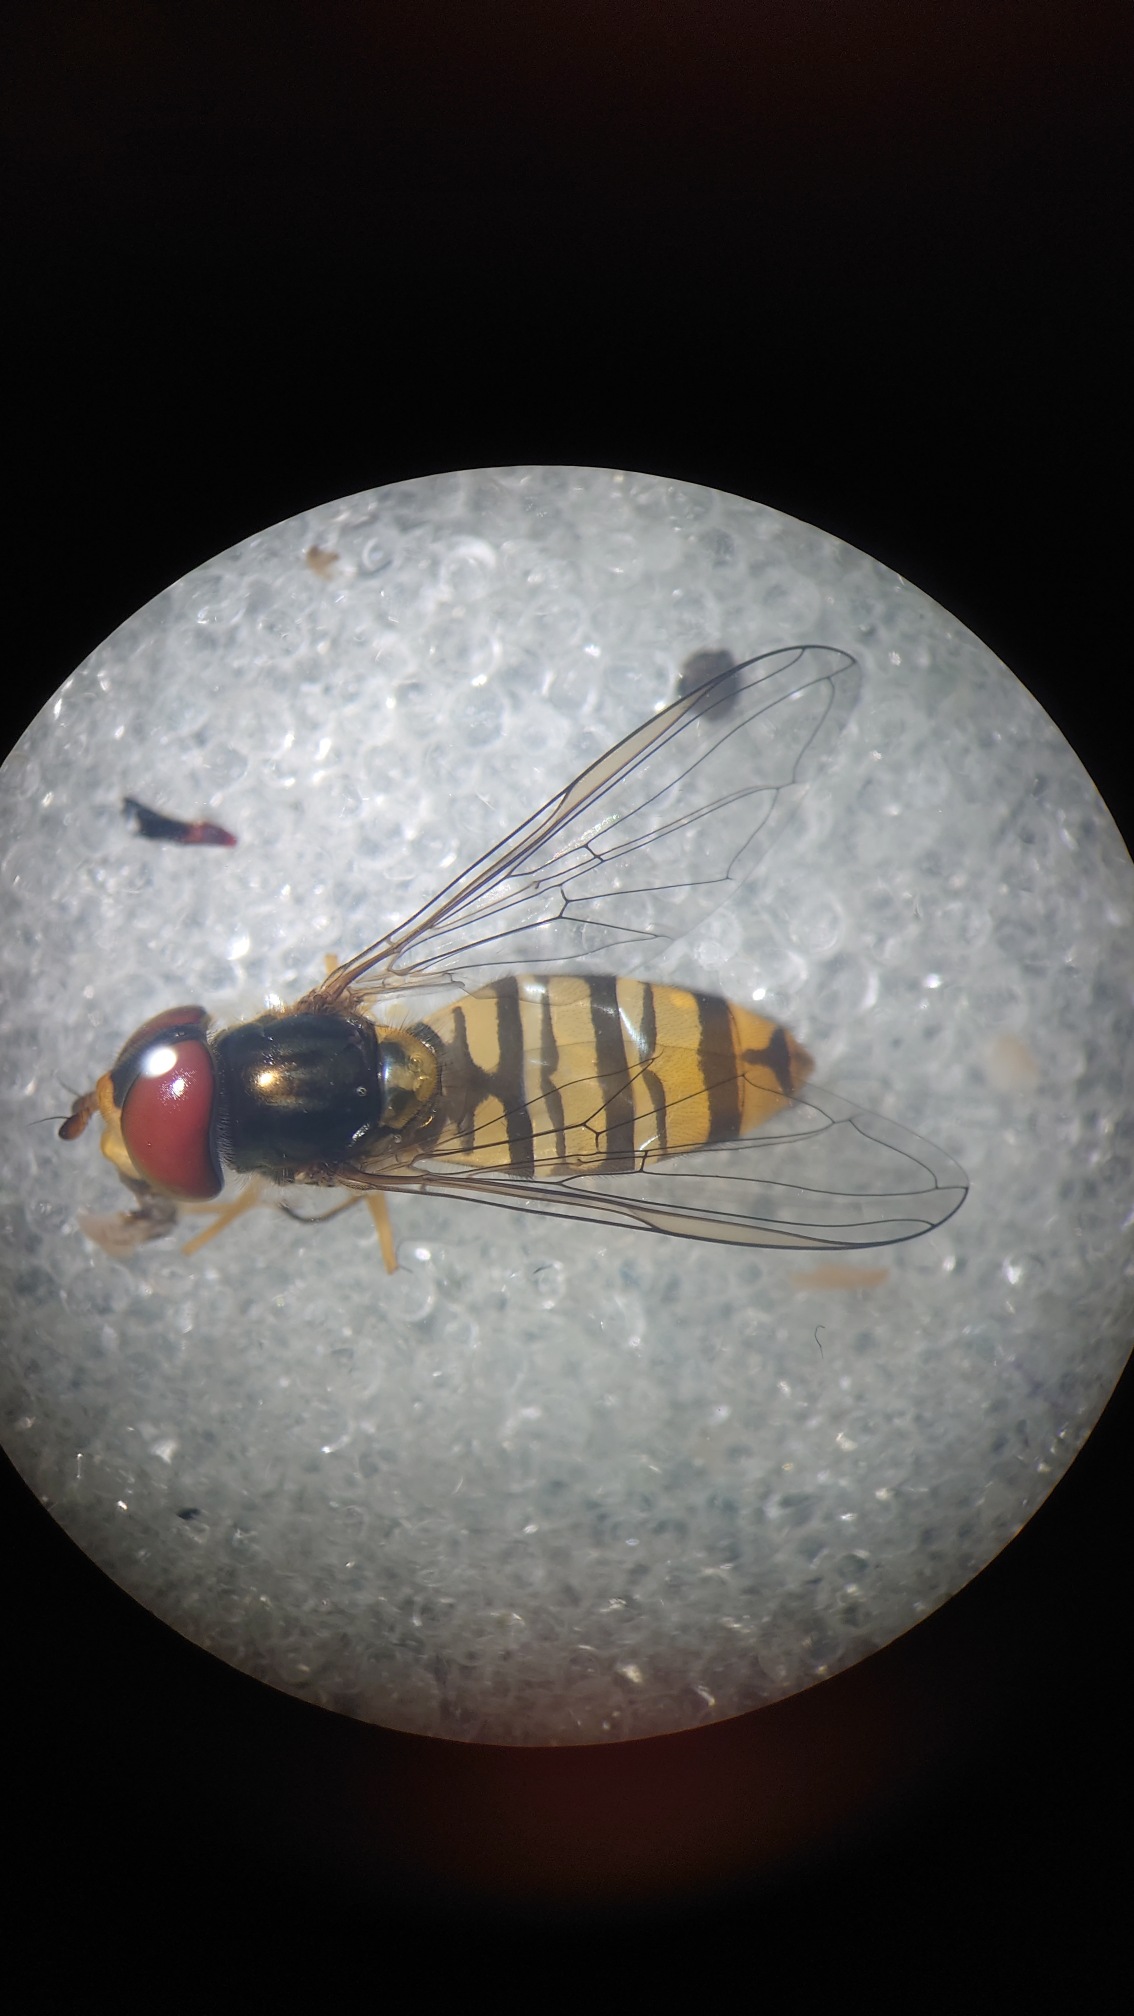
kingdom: Animalia
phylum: Arthropoda
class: Insecta
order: Diptera
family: Syrphidae
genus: Episyrphus
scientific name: Episyrphus balteatus
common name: Dobbeltbåndet svirreflue
